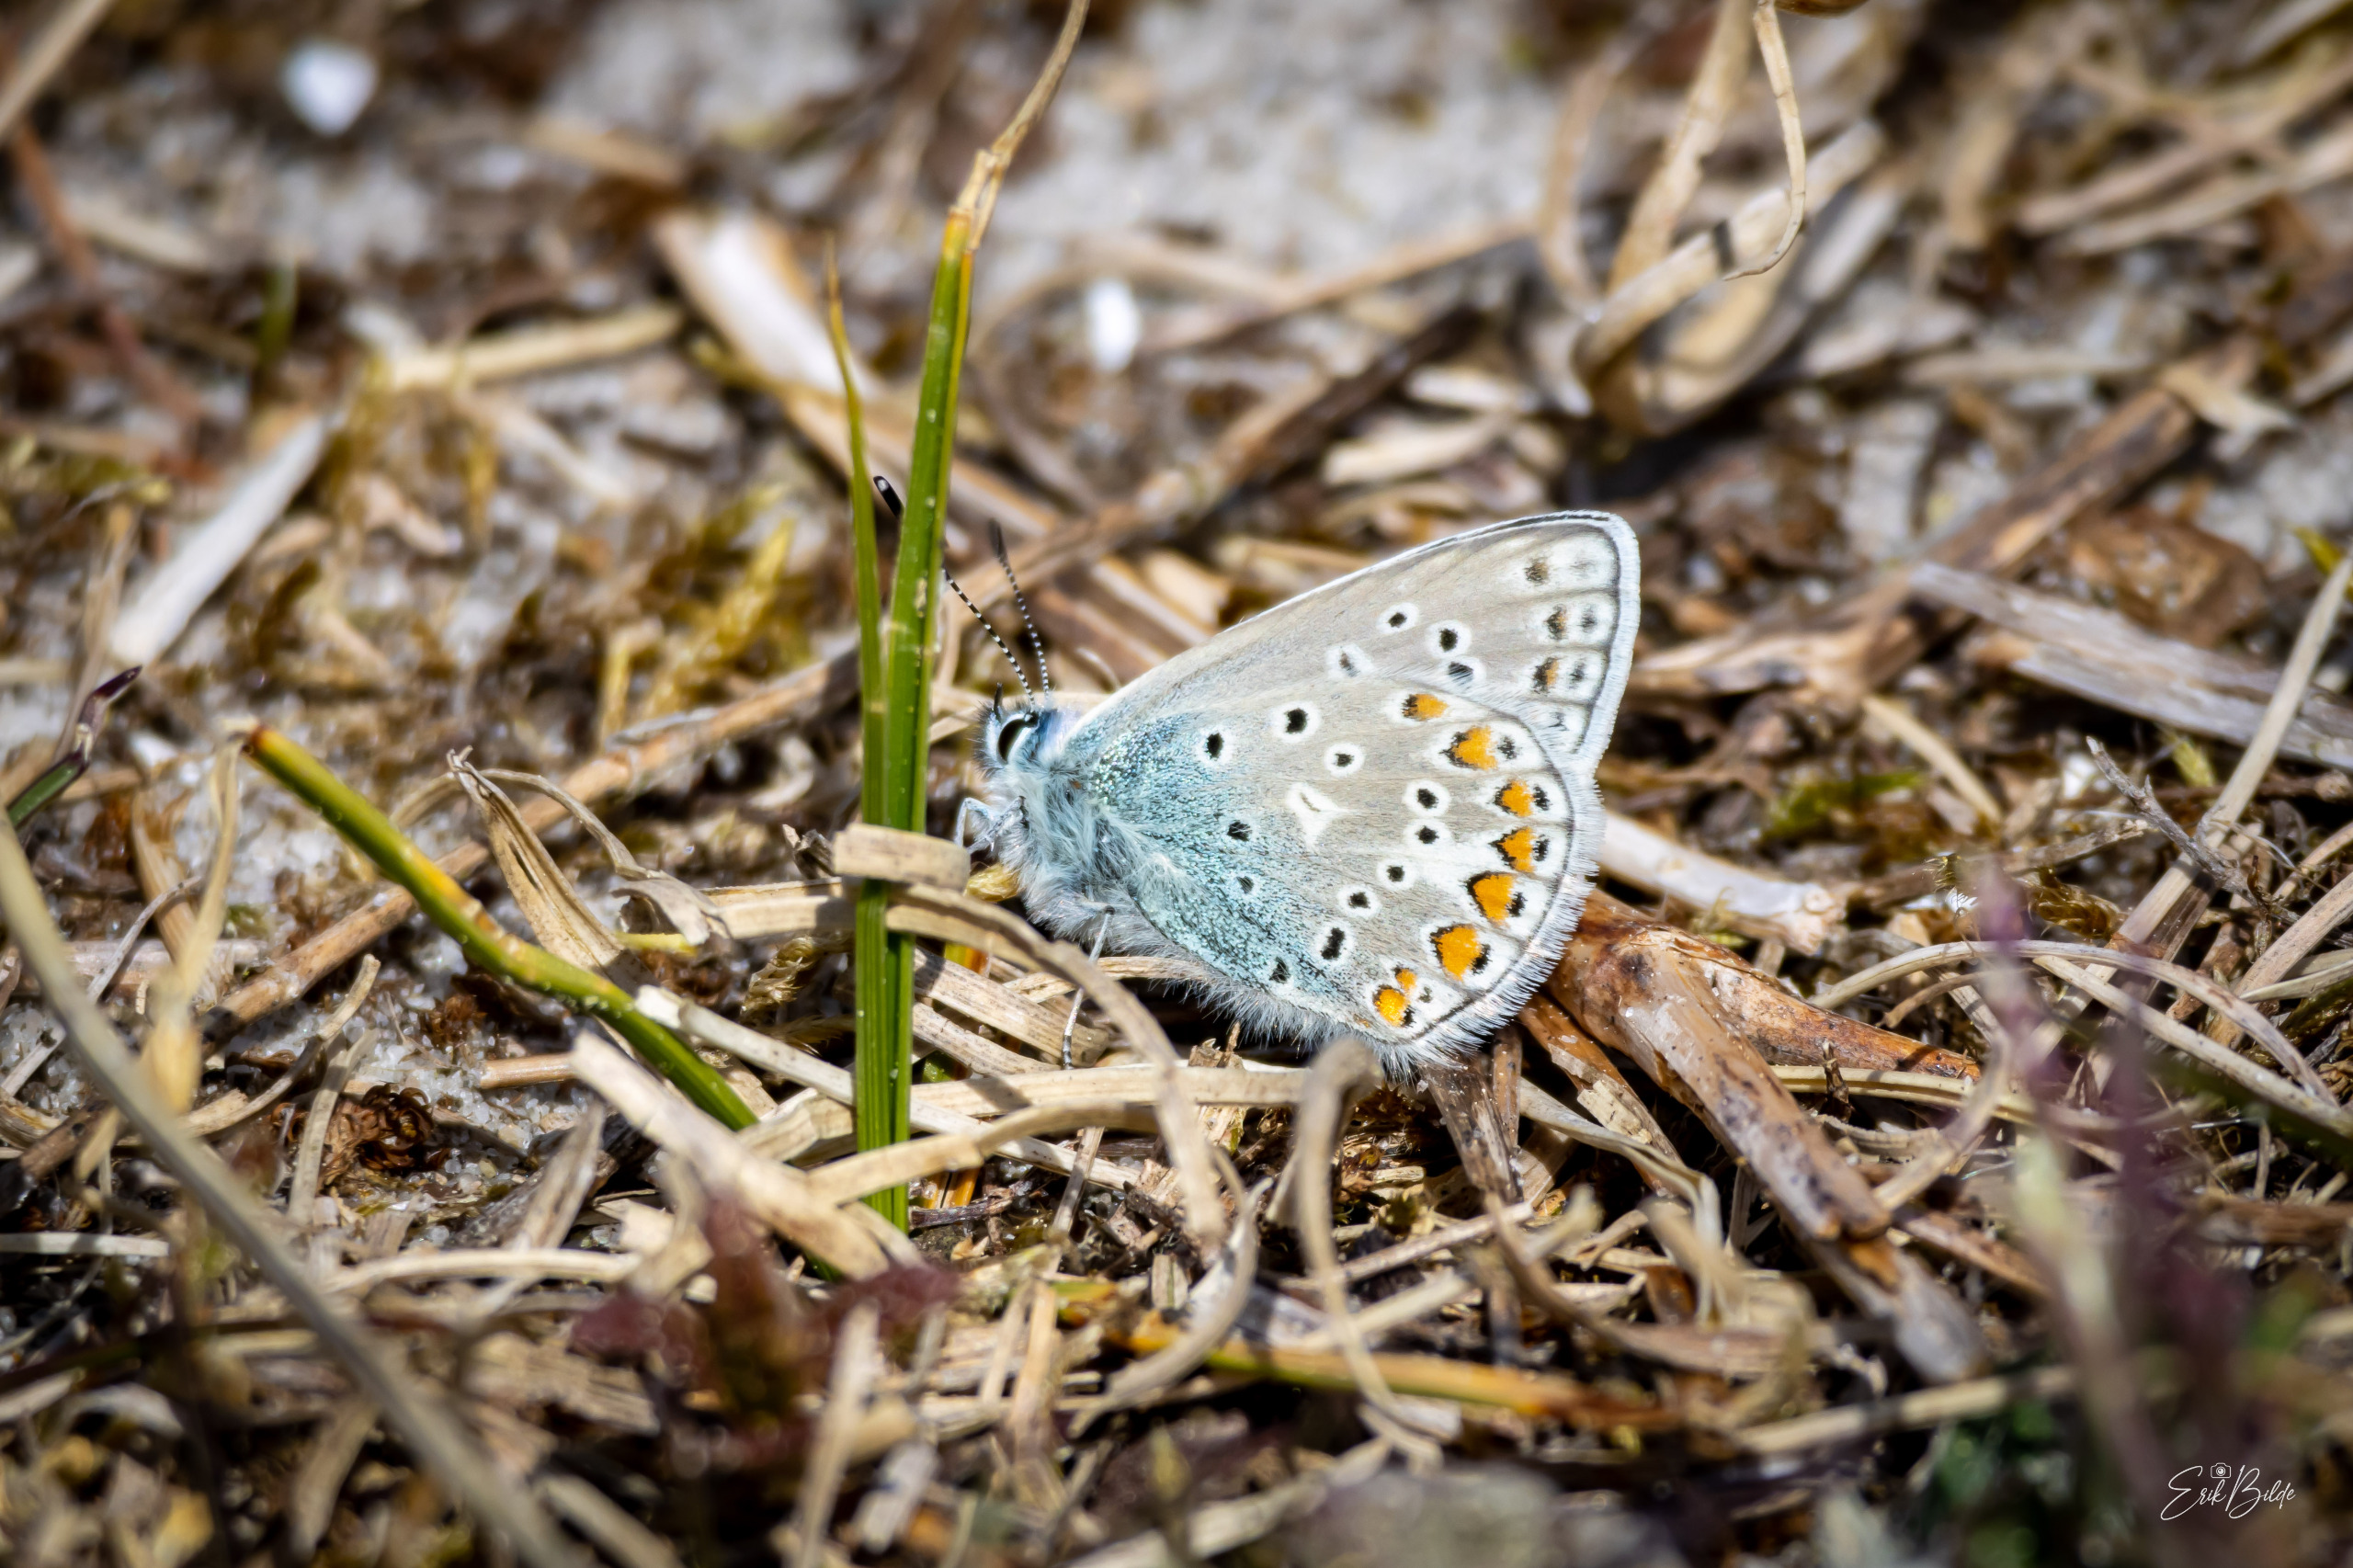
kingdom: Animalia
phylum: Arthropoda
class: Insecta
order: Lepidoptera
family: Lycaenidae
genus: Polyommatus
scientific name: Polyommatus icarus
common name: Almindelig blåfugl
